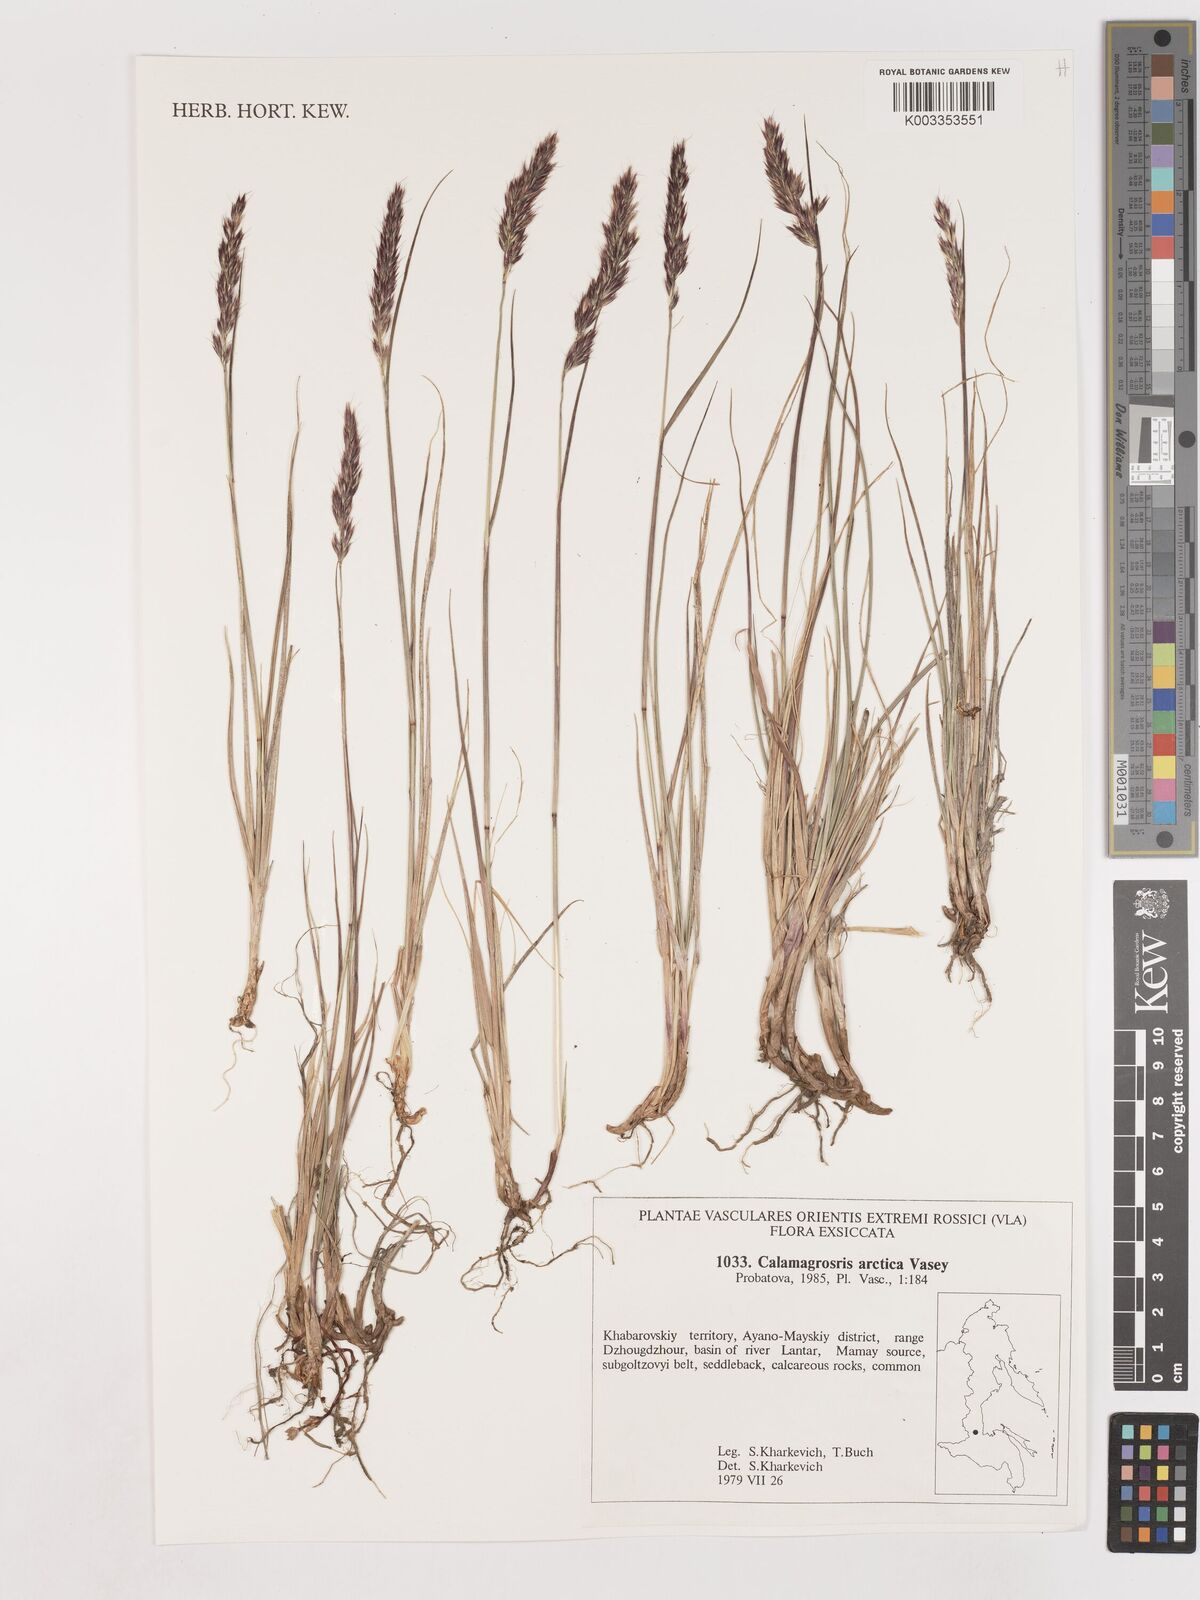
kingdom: Plantae
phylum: Tracheophyta
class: Liliopsida
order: Poales
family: Poaceae
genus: Calamagrostis
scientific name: Calamagrostis purpurascens
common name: Purple reedgrass
